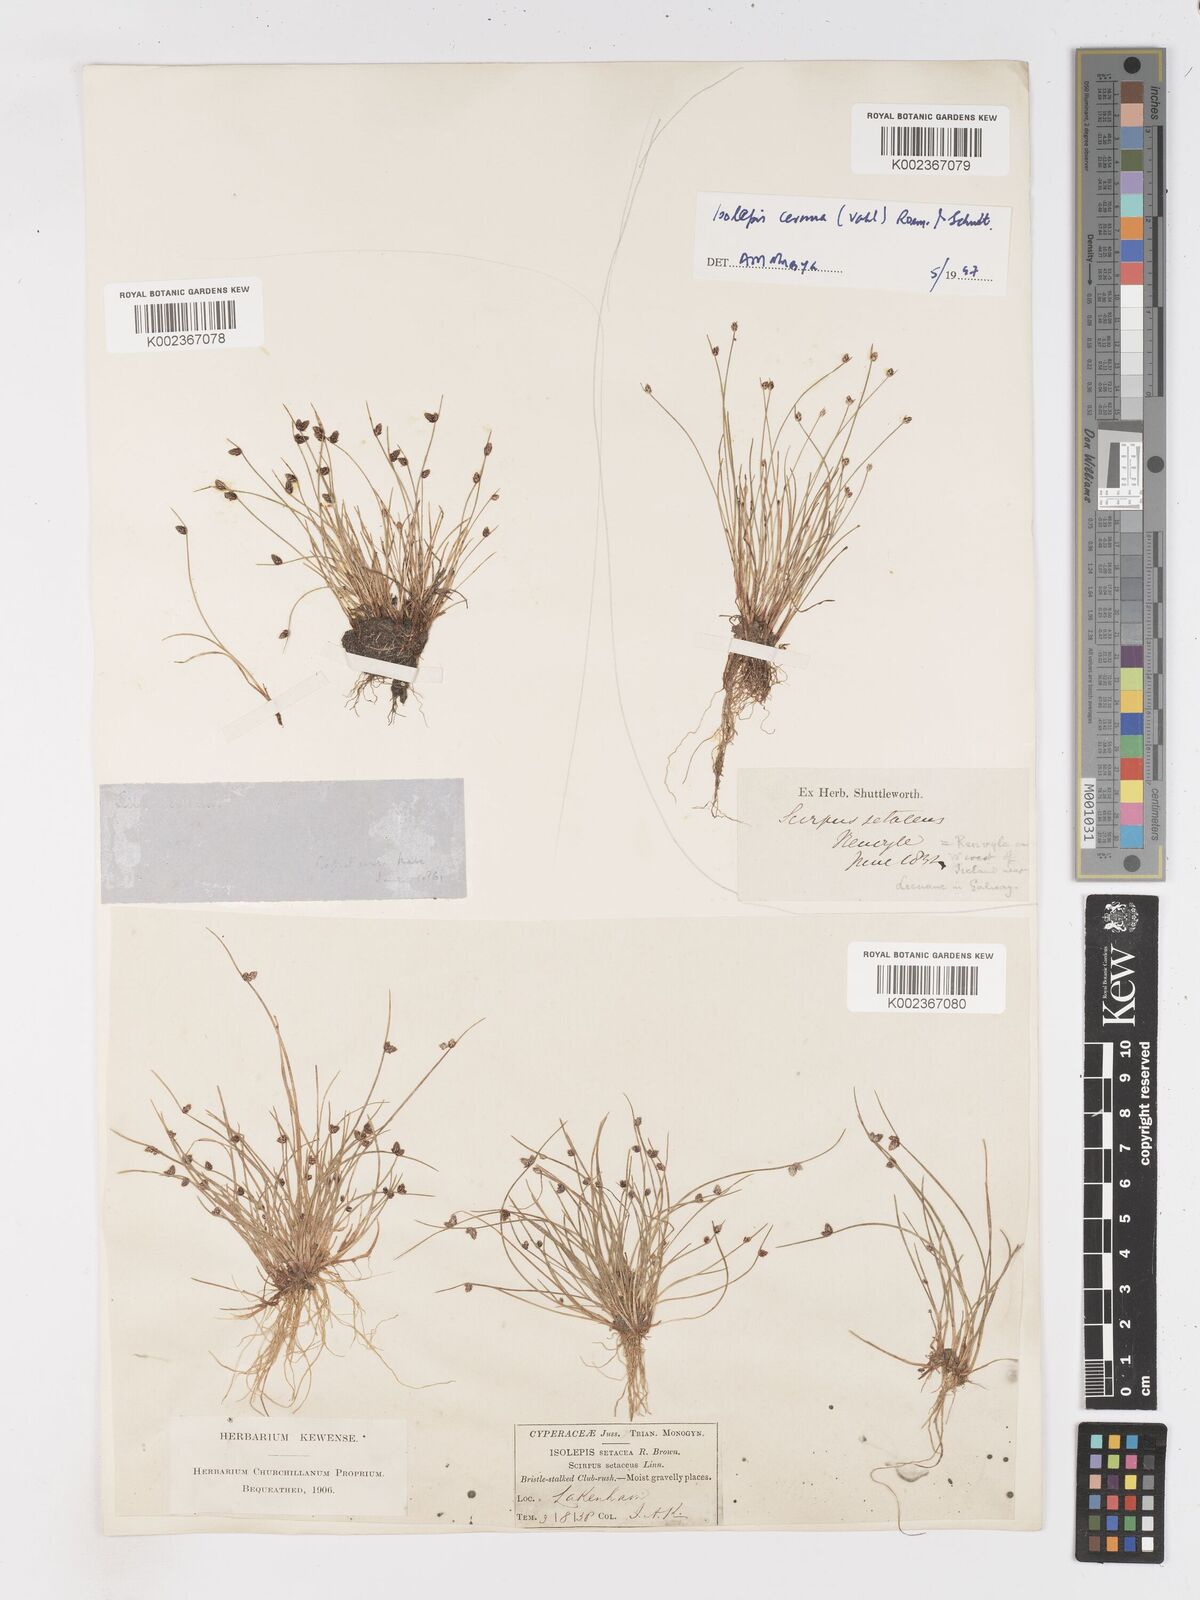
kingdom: Plantae
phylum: Tracheophyta
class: Liliopsida
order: Poales
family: Cyperaceae
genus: Isolepis
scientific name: Isolepis setacea
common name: Bristle club-rush
